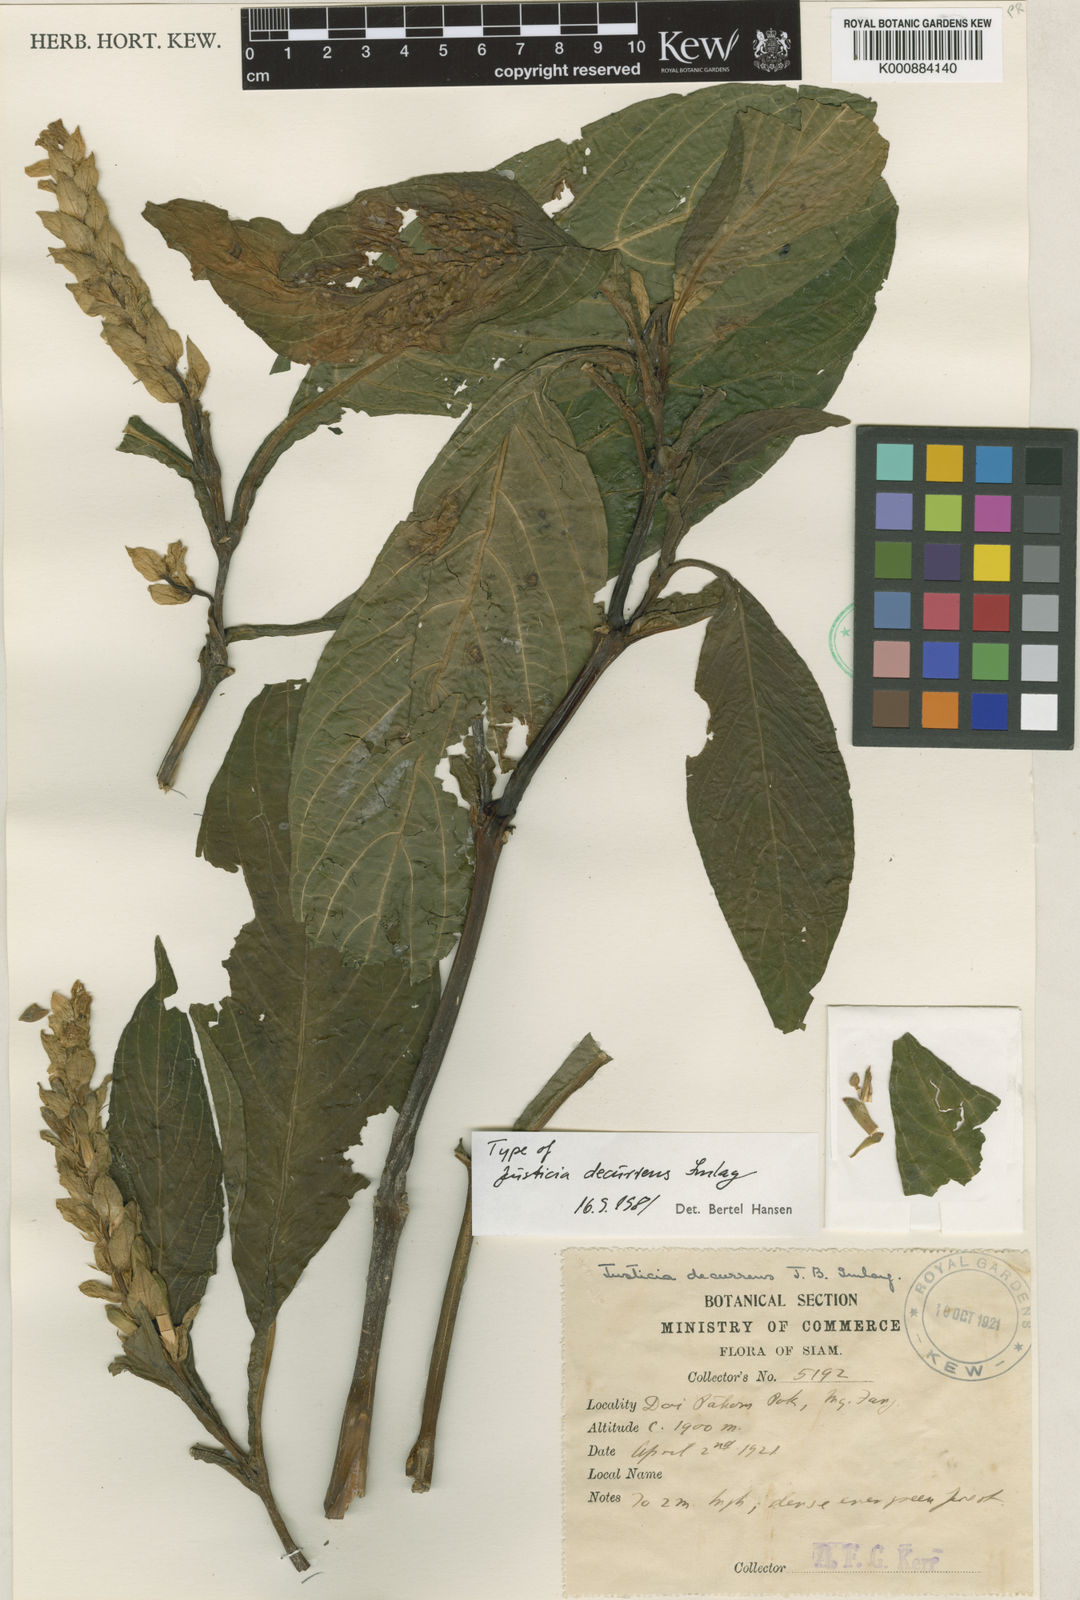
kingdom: Plantae
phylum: Tracheophyta
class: Magnoliopsida
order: Lamiales
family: Acanthaceae
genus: Justicia
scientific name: Justicia decurrens
